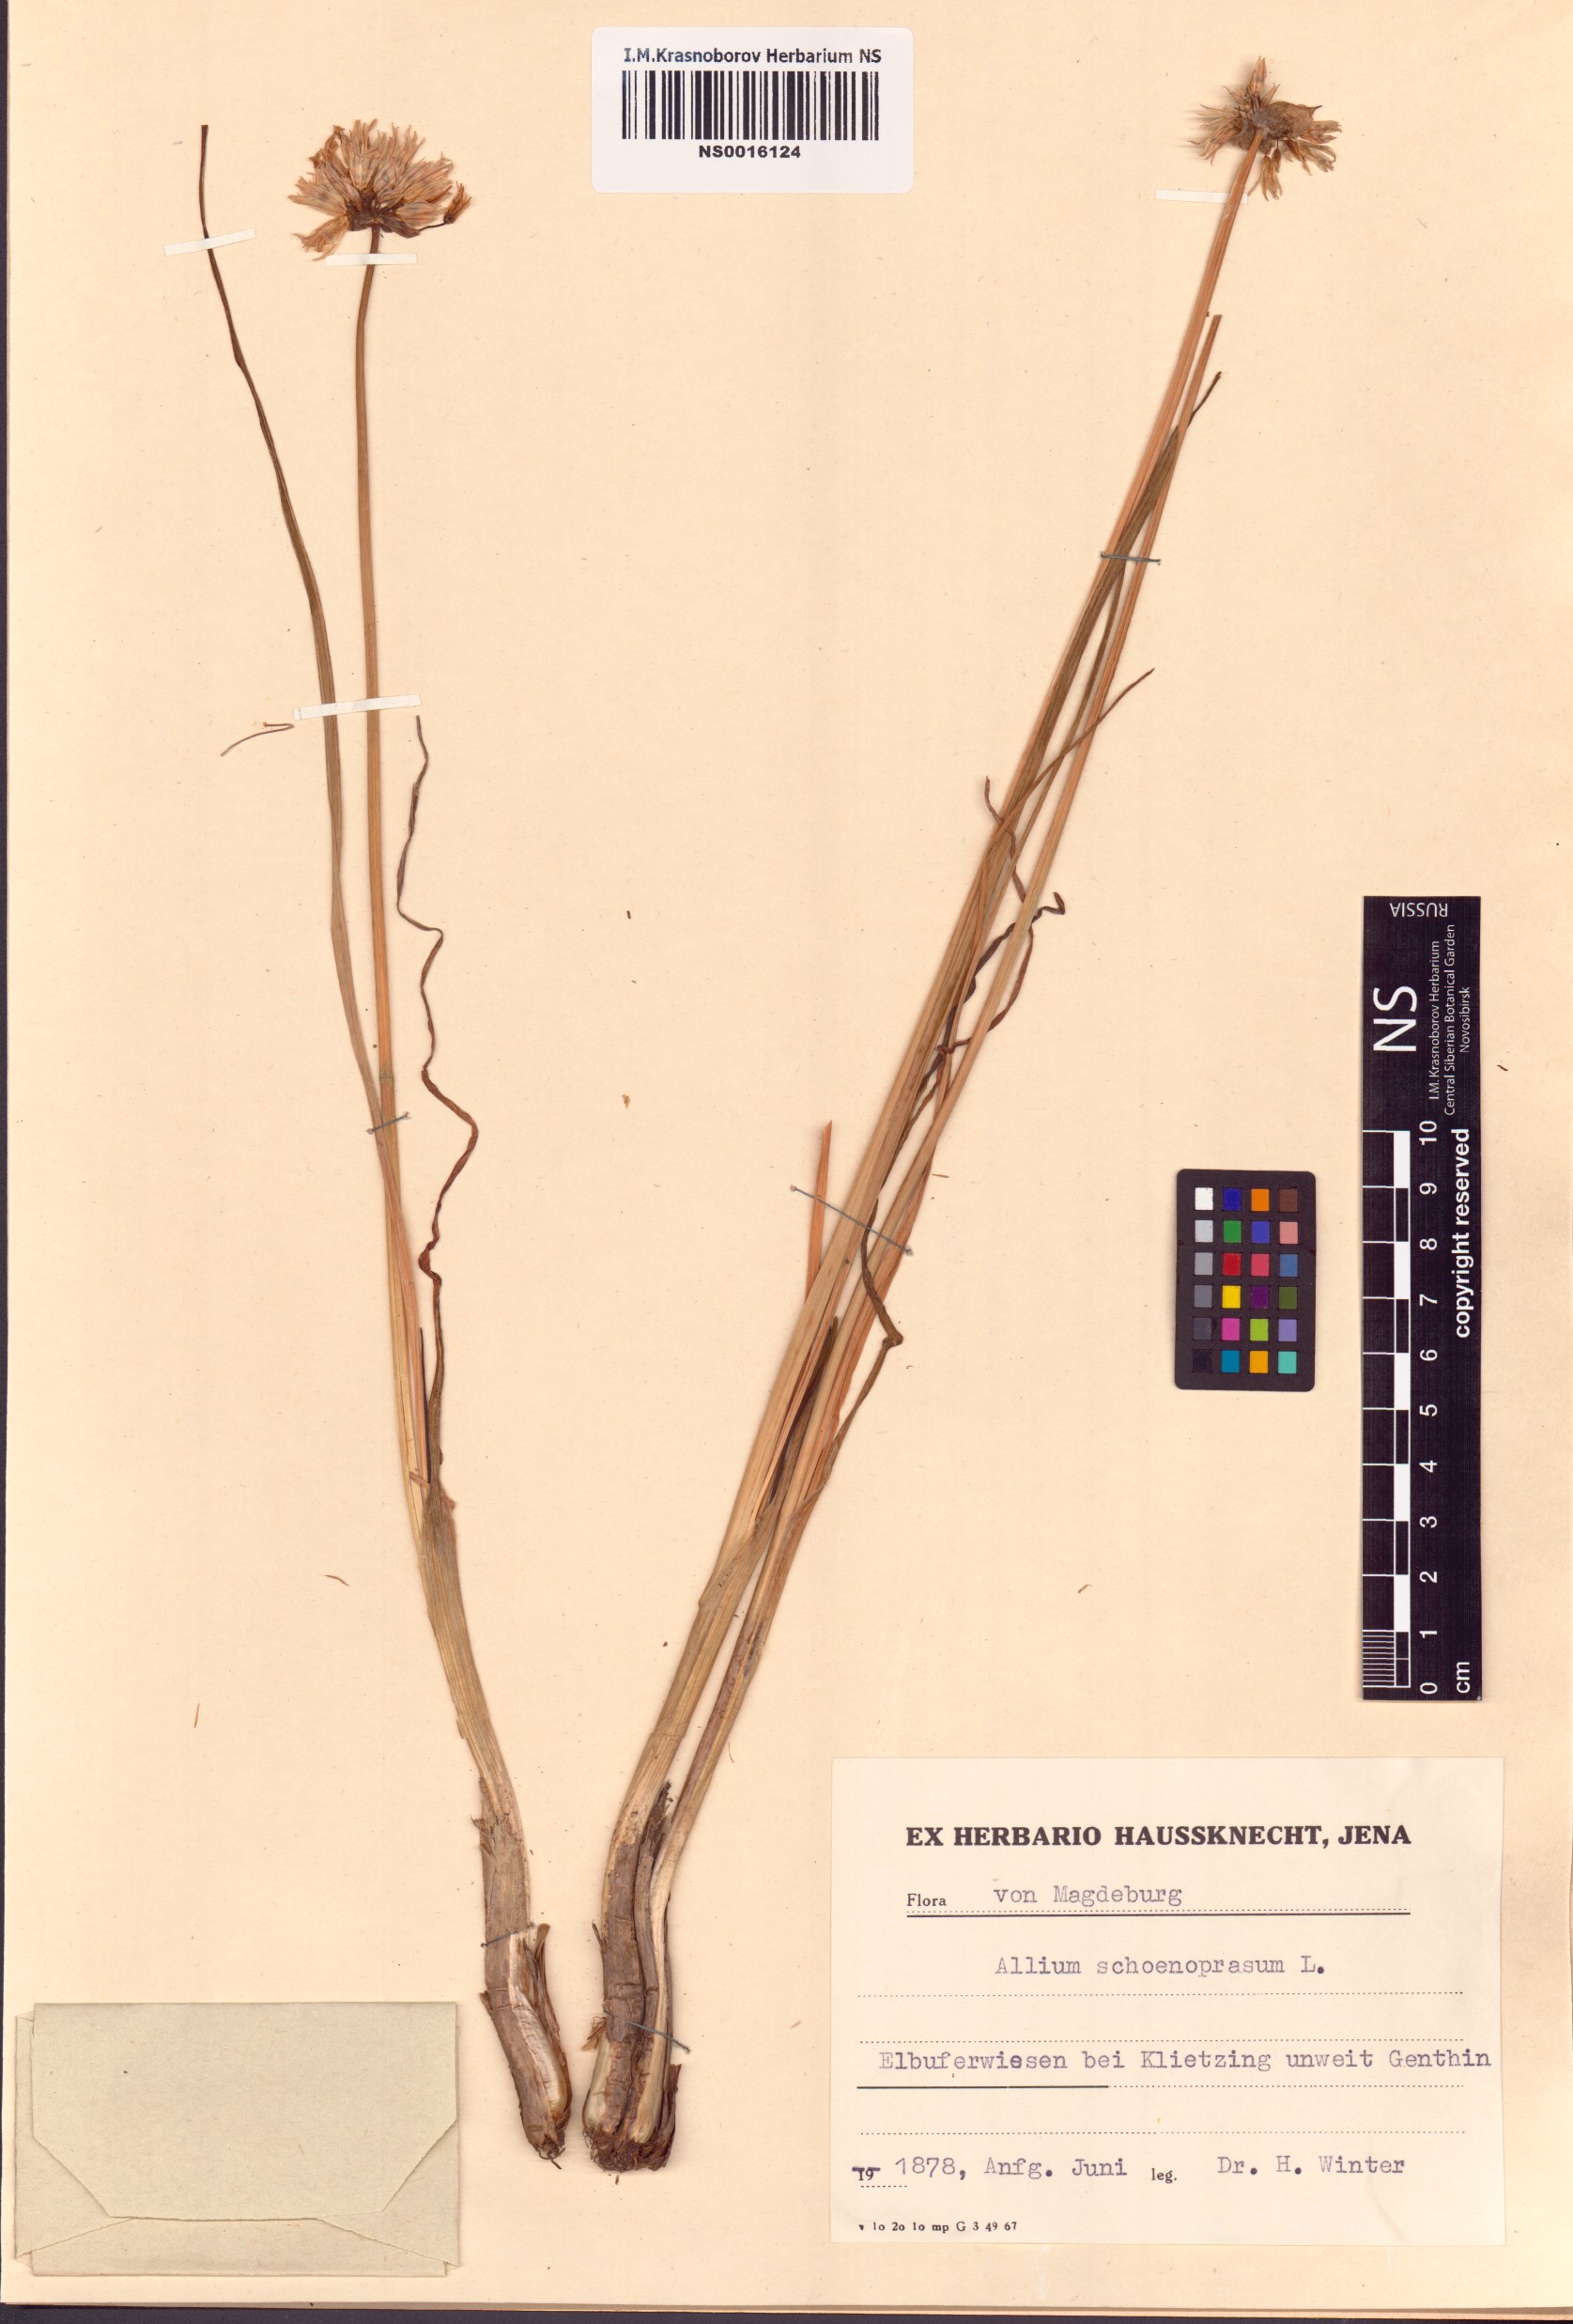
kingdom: Plantae
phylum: Tracheophyta
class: Liliopsida
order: Asparagales
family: Amaryllidaceae
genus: Allium
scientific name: Allium schoenoprasum
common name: Chives
